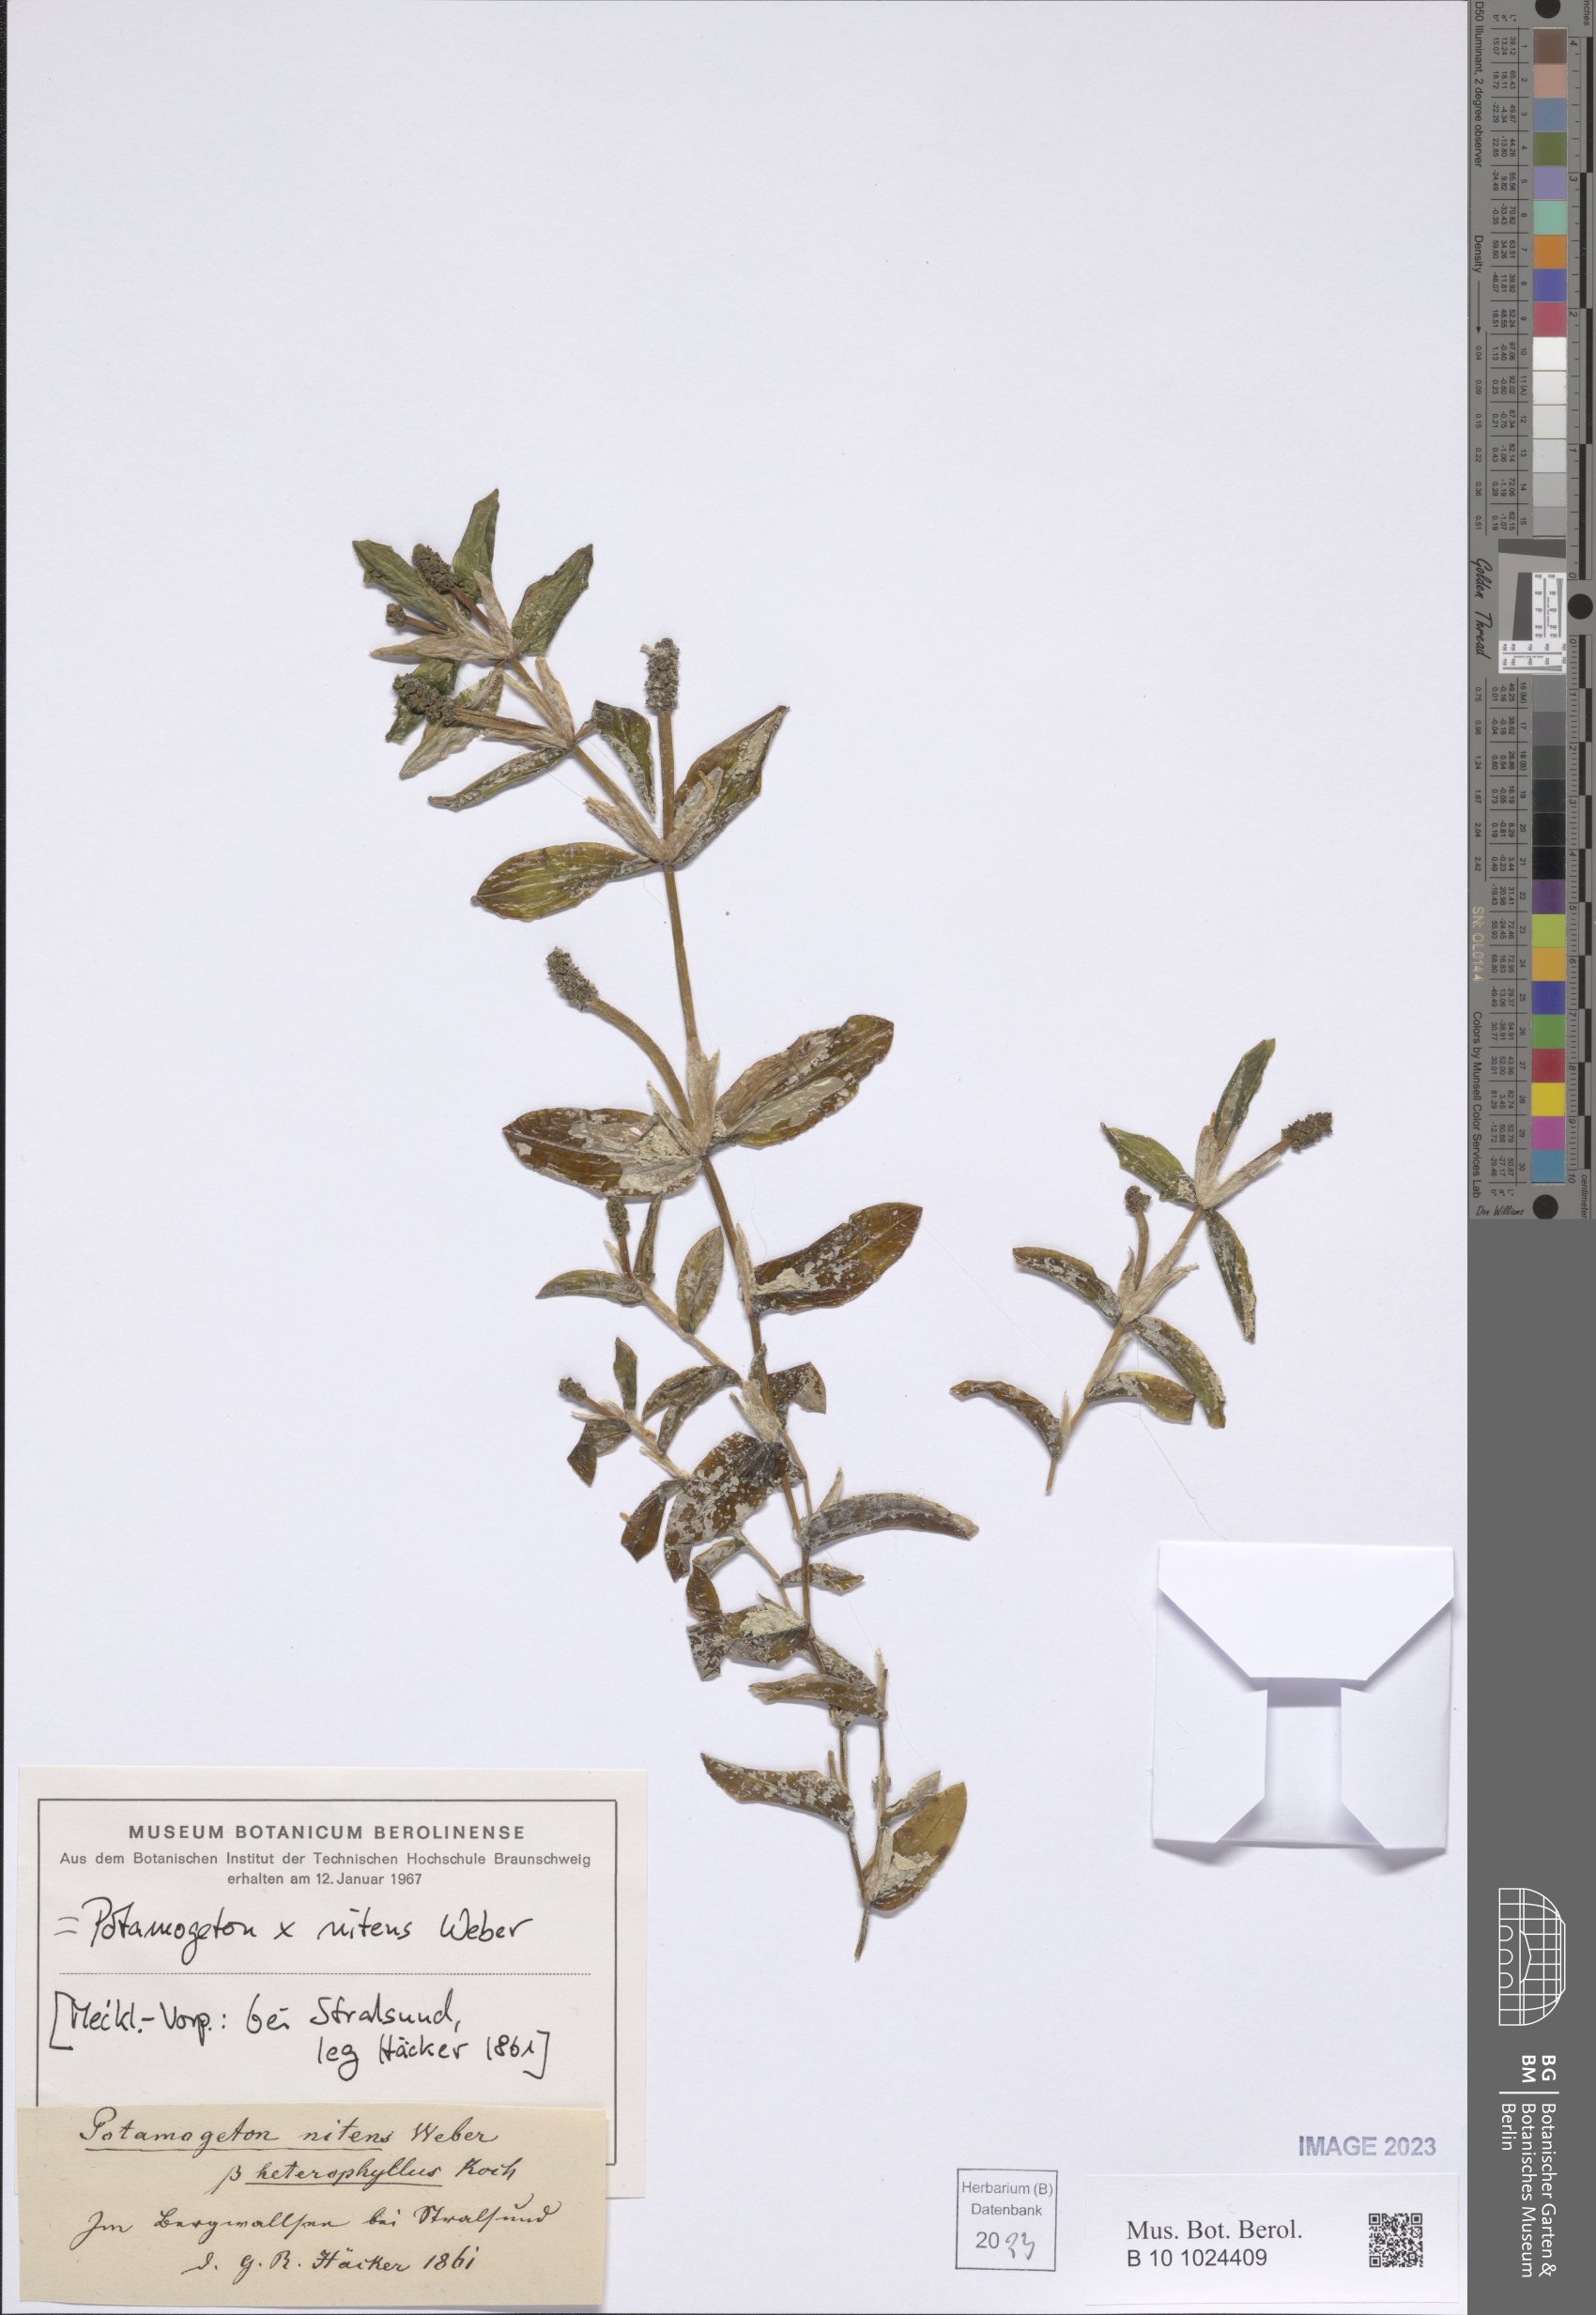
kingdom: Plantae
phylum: Tracheophyta
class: Liliopsida
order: Alismatales
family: Potamogetonaceae
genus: Potamogeton
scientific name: Potamogeton lucens
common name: Shining pondweed
